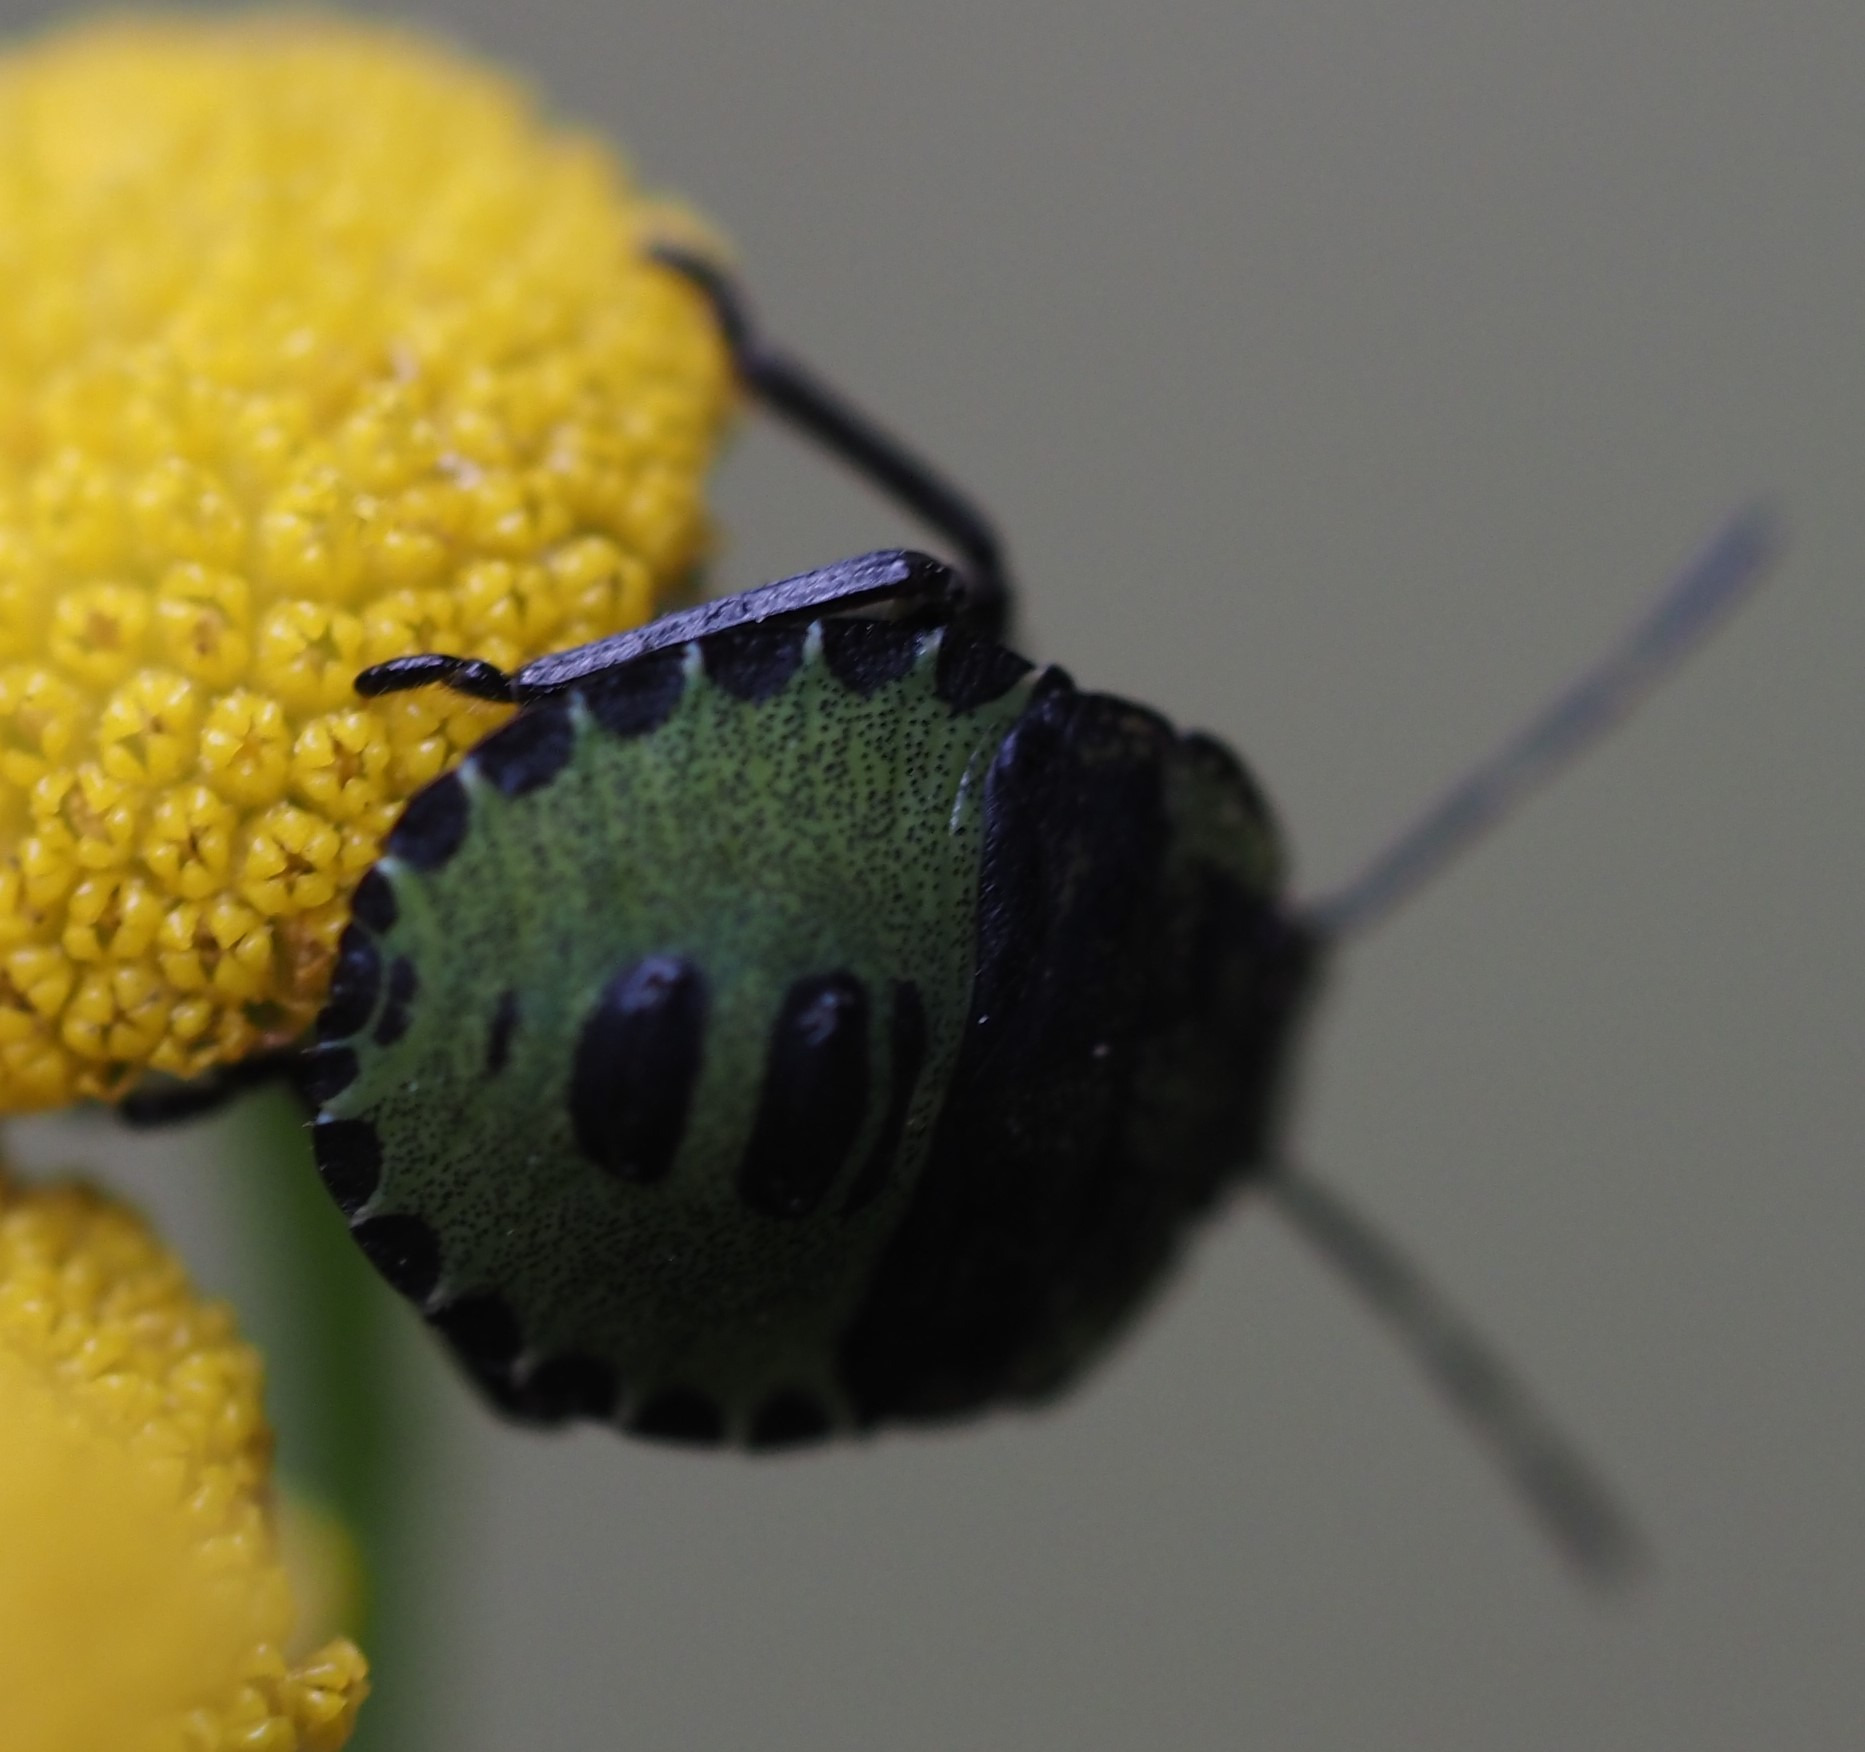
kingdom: Animalia
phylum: Arthropoda
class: Insecta
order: Hemiptera
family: Pentatomidae
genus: Palomena
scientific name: Palomena prasina
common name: Grøn bredtæge
